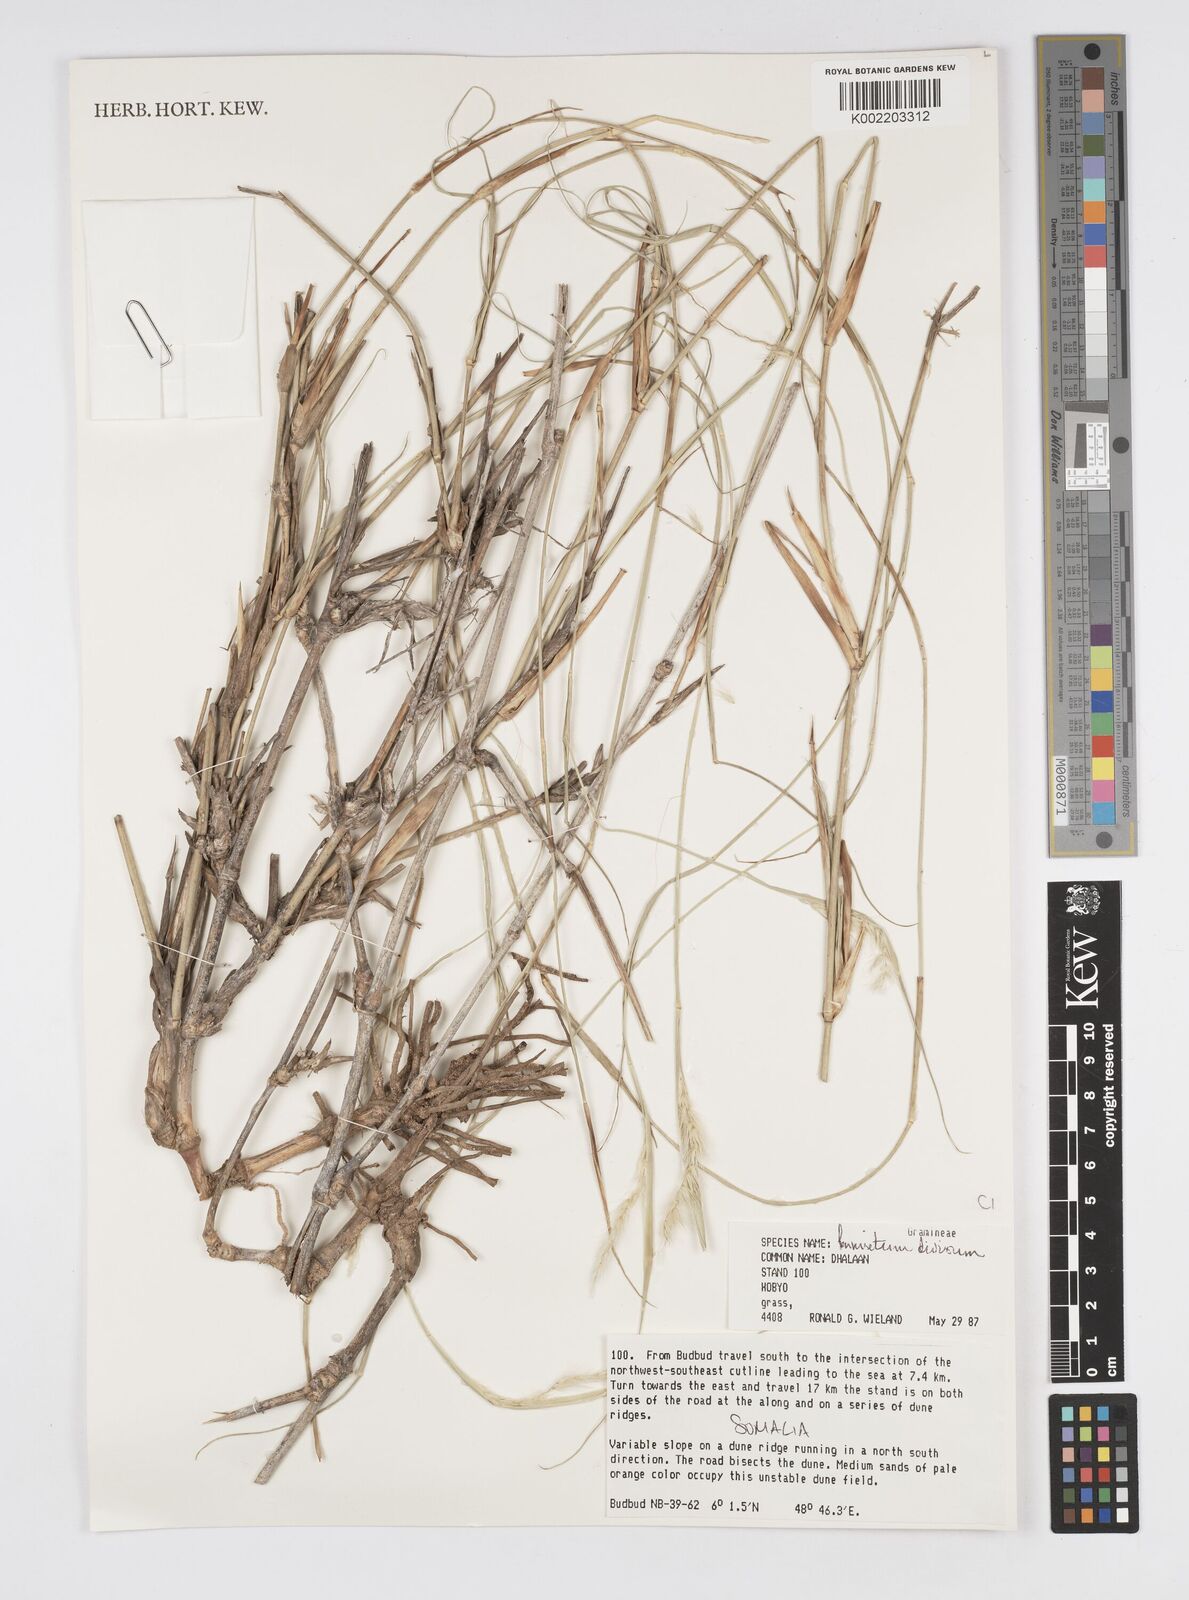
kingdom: Plantae
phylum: Tracheophyta
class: Liliopsida
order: Poales
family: Poaceae
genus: Cenchrus
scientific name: Cenchrus divisus
